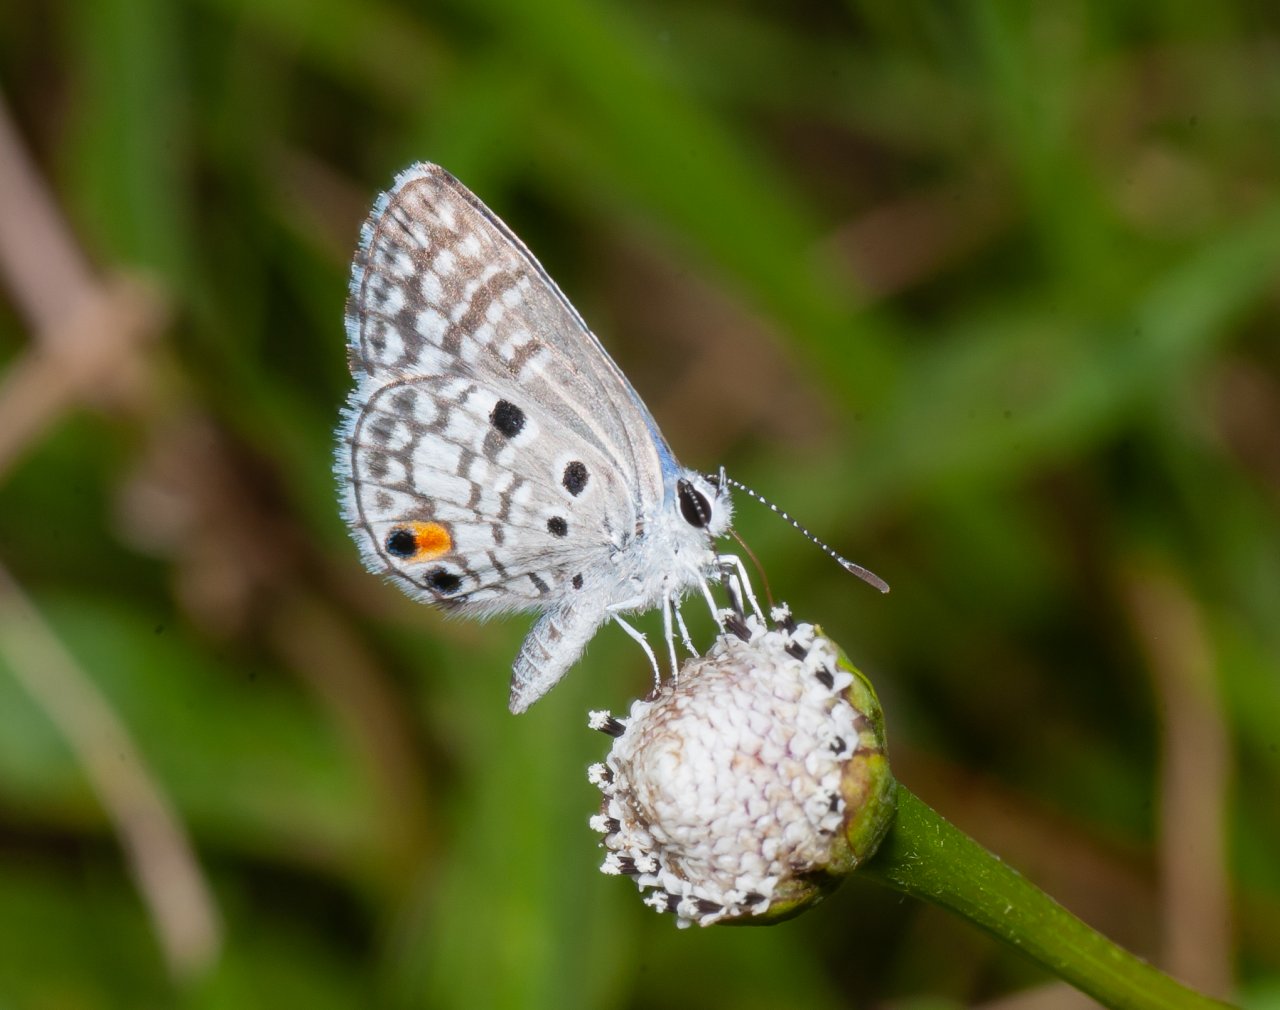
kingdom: Animalia
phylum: Arthropoda
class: Insecta
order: Lepidoptera
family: Lycaenidae
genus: Cyclargus
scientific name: Cyclargus ammon
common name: Nickerbean Blue
